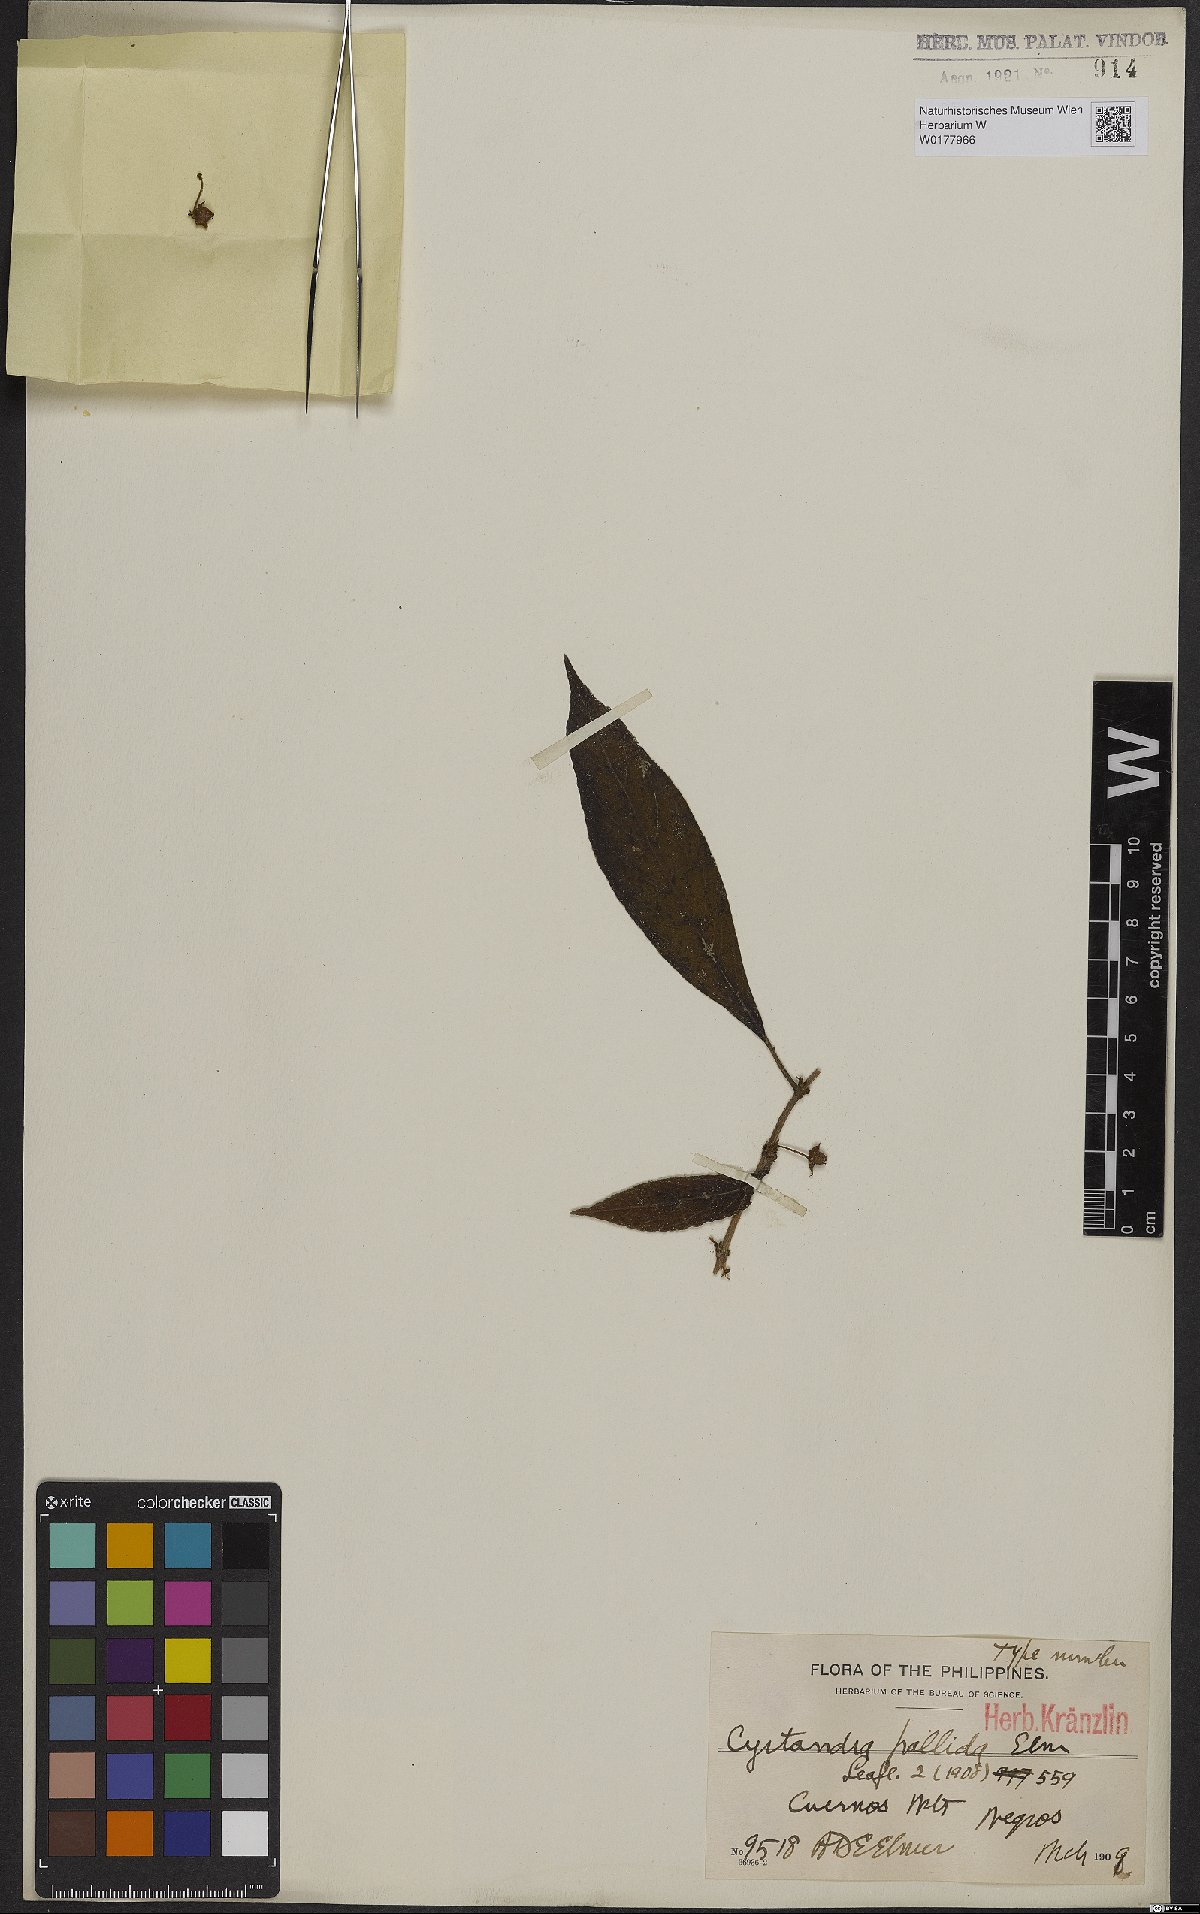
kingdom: Plantae
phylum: Tracheophyta
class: Magnoliopsida
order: Lamiales
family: Gesneriaceae
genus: Cyrtandra
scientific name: Cyrtandra
